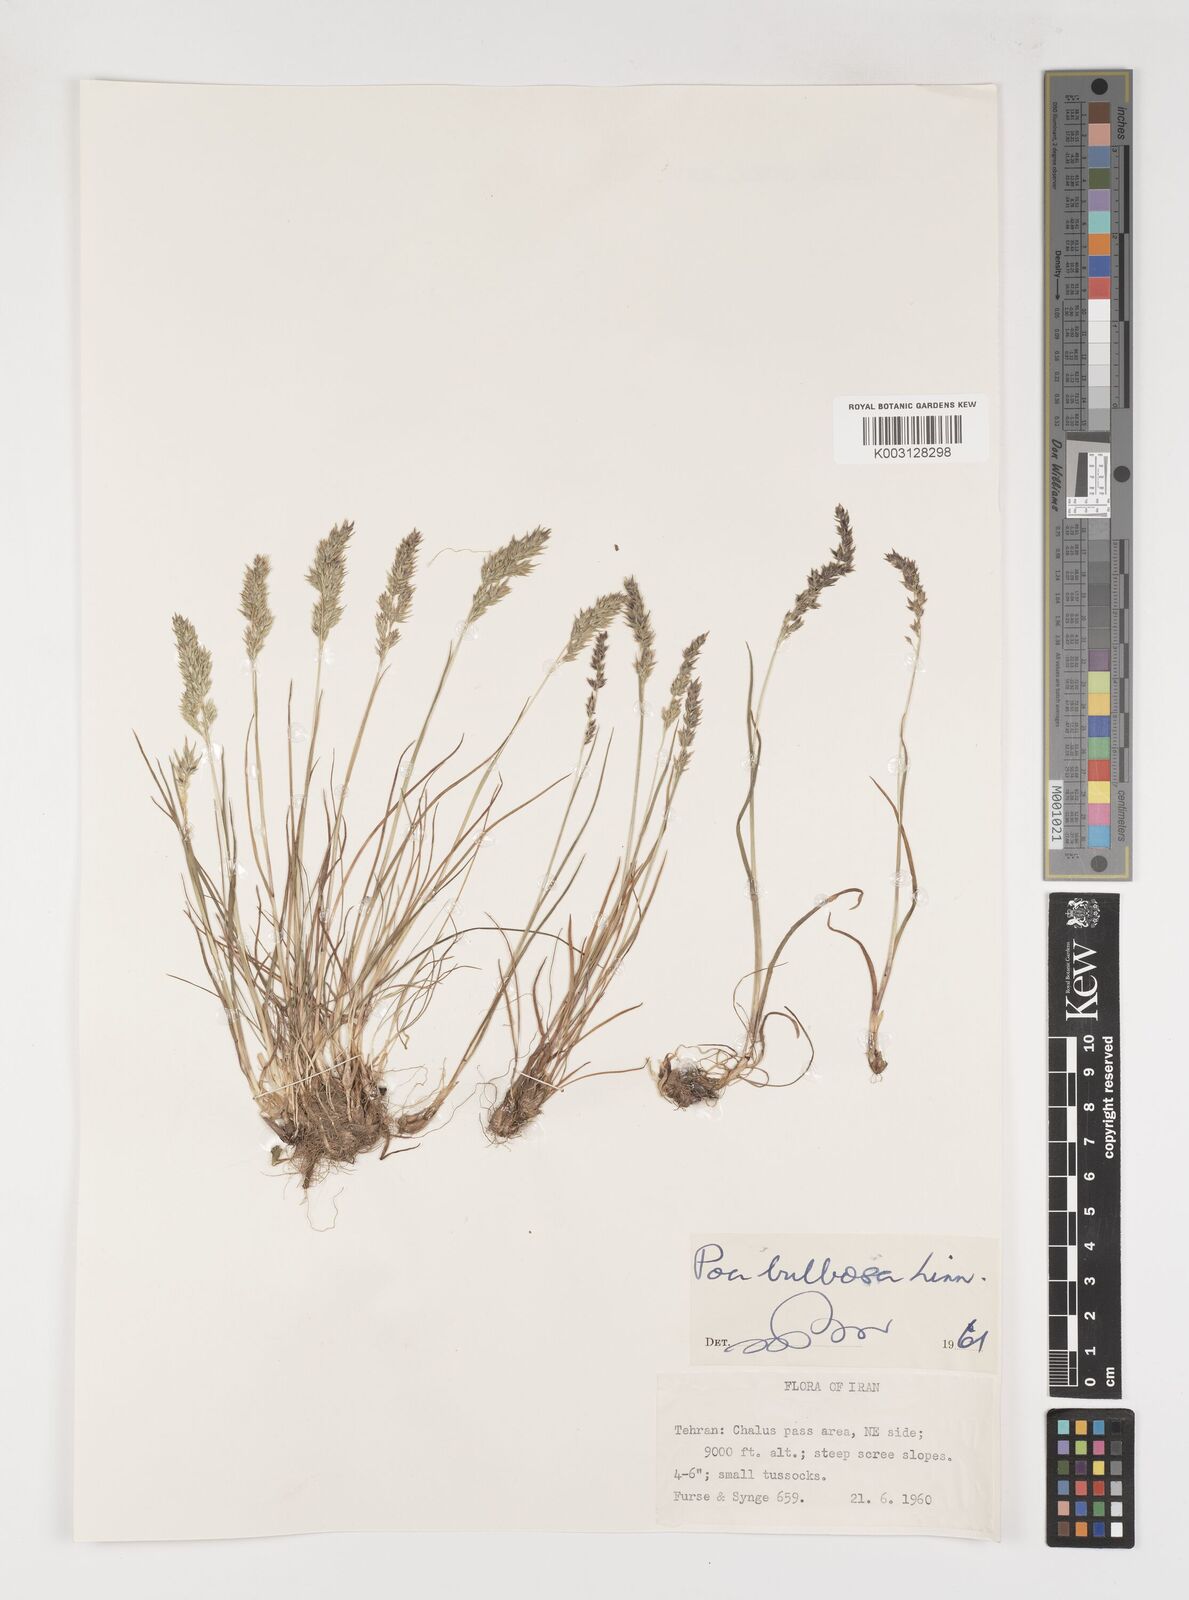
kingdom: Plantae
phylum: Tracheophyta
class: Liliopsida
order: Poales
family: Poaceae
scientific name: Poaceae
